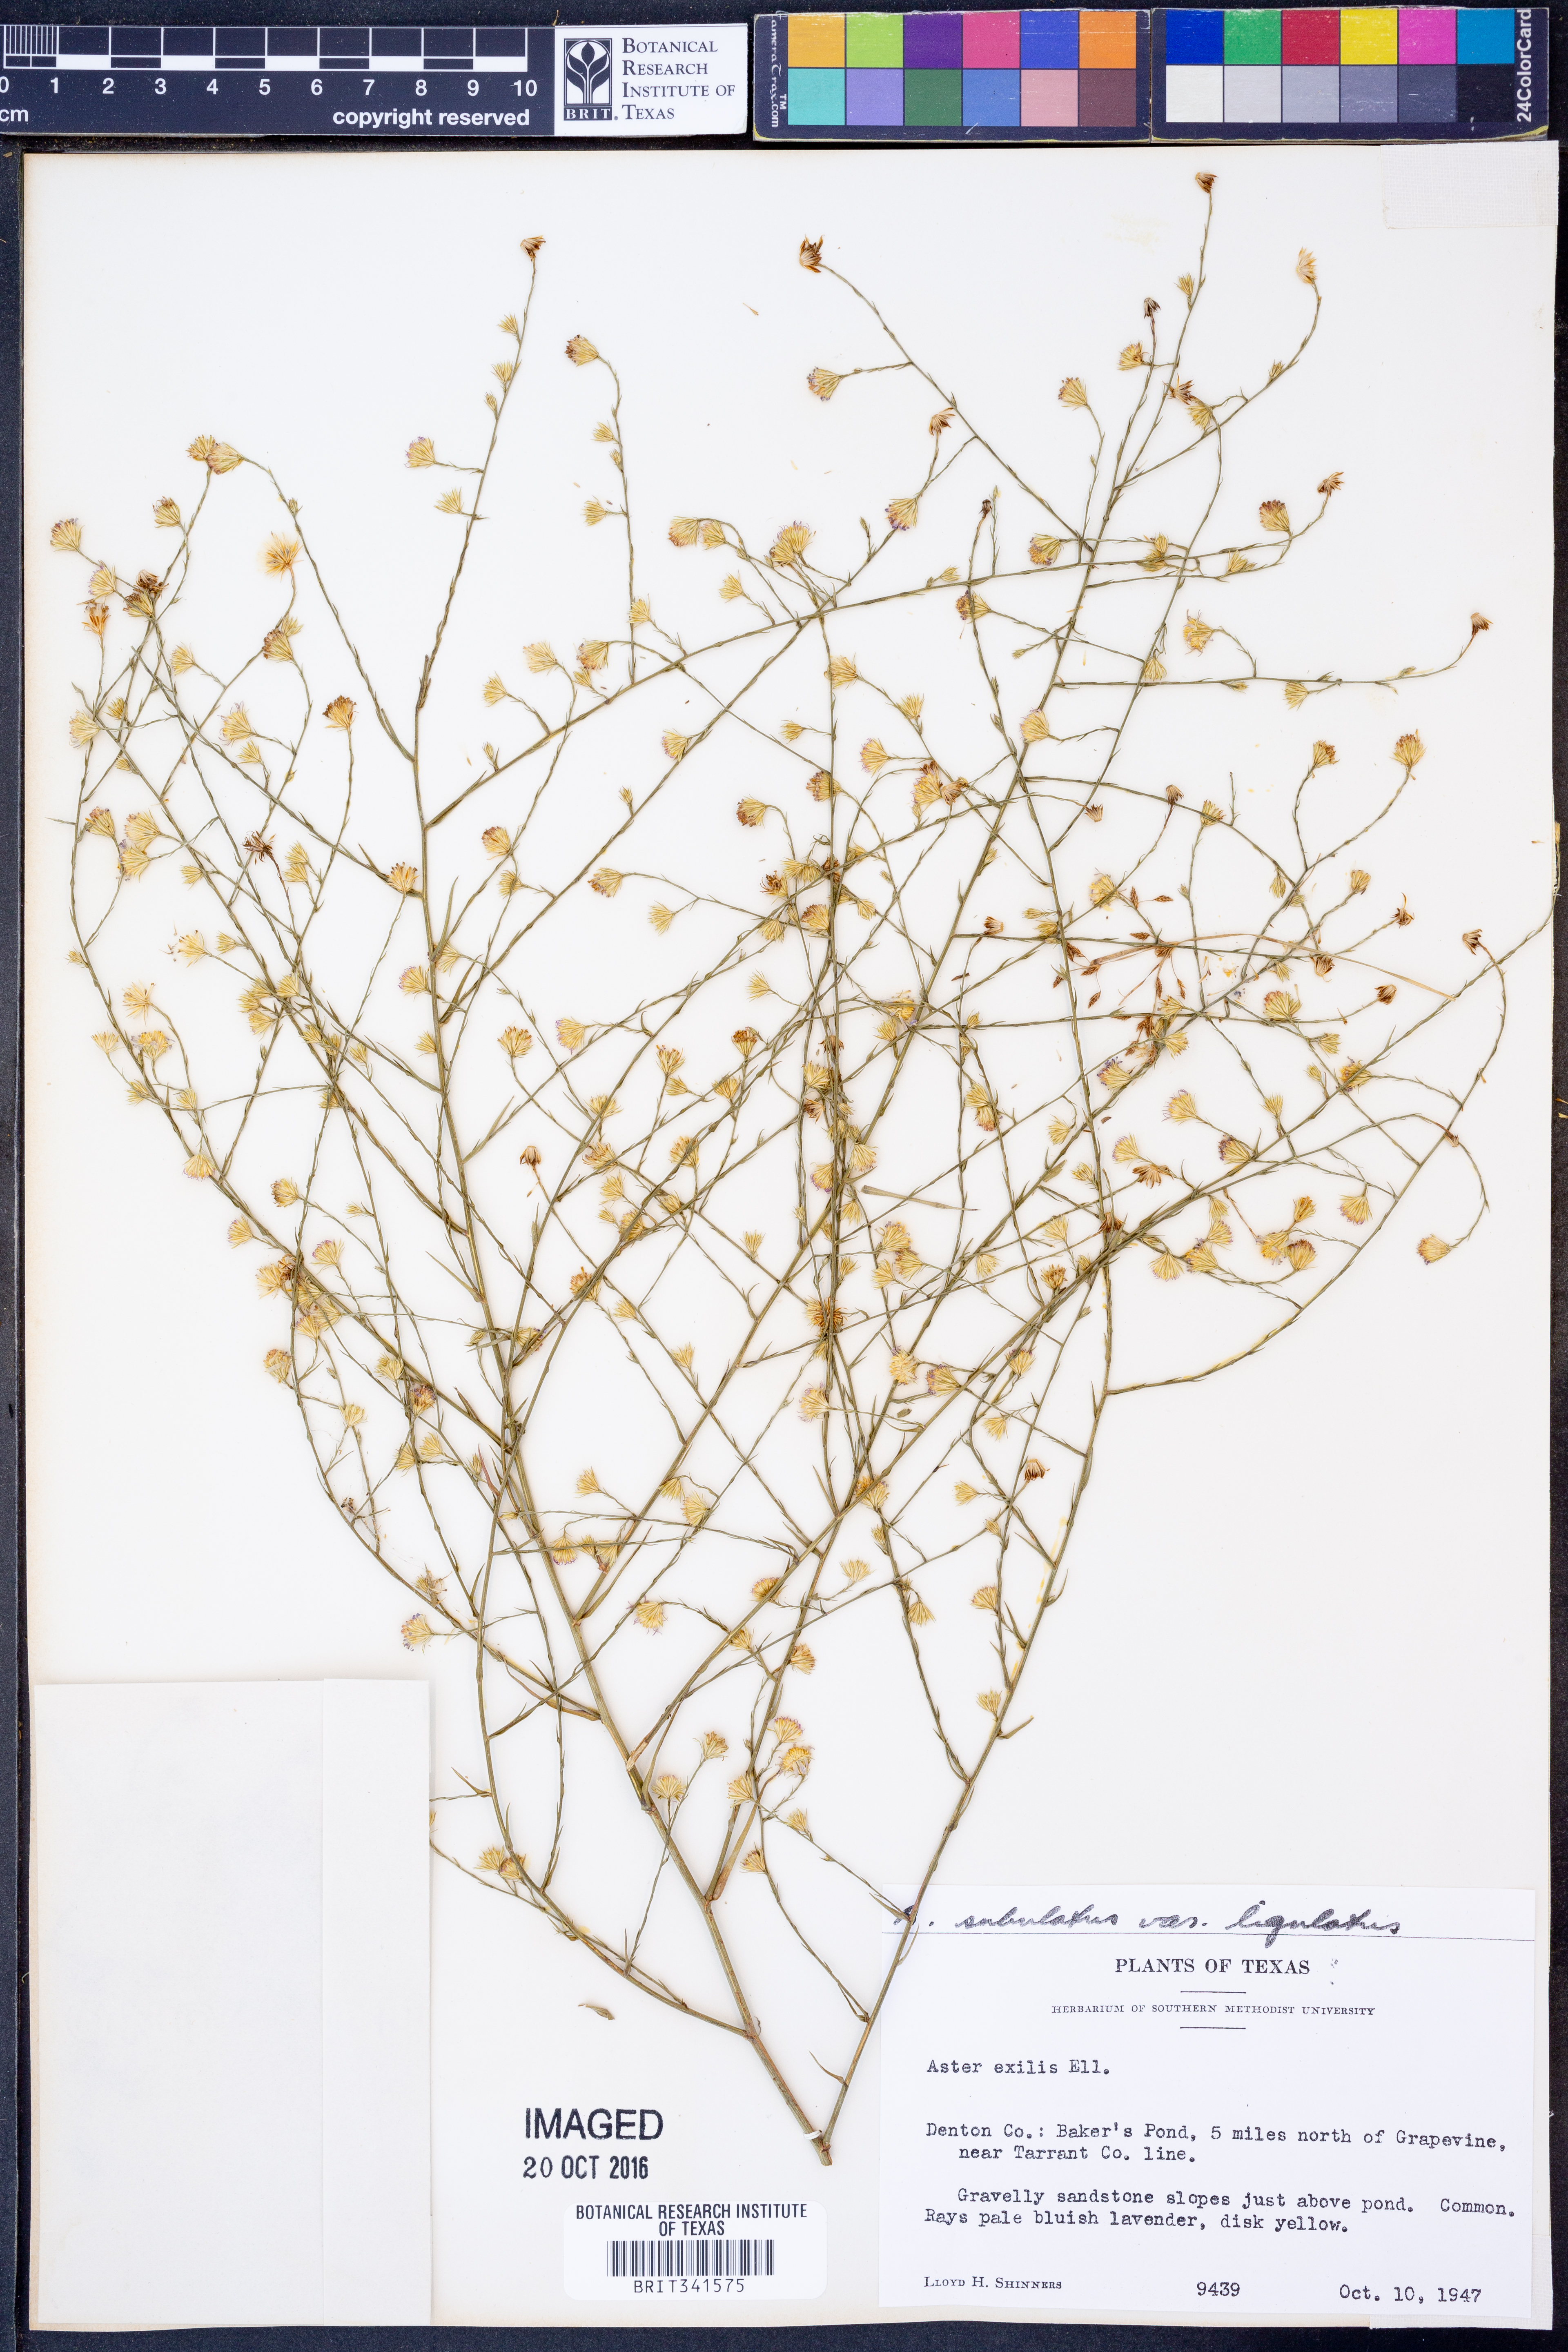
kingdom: Plantae
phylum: Tracheophyta
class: Magnoliopsida
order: Asterales
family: Asteraceae
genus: Symphyotrichum
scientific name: Symphyotrichum divaricatum
